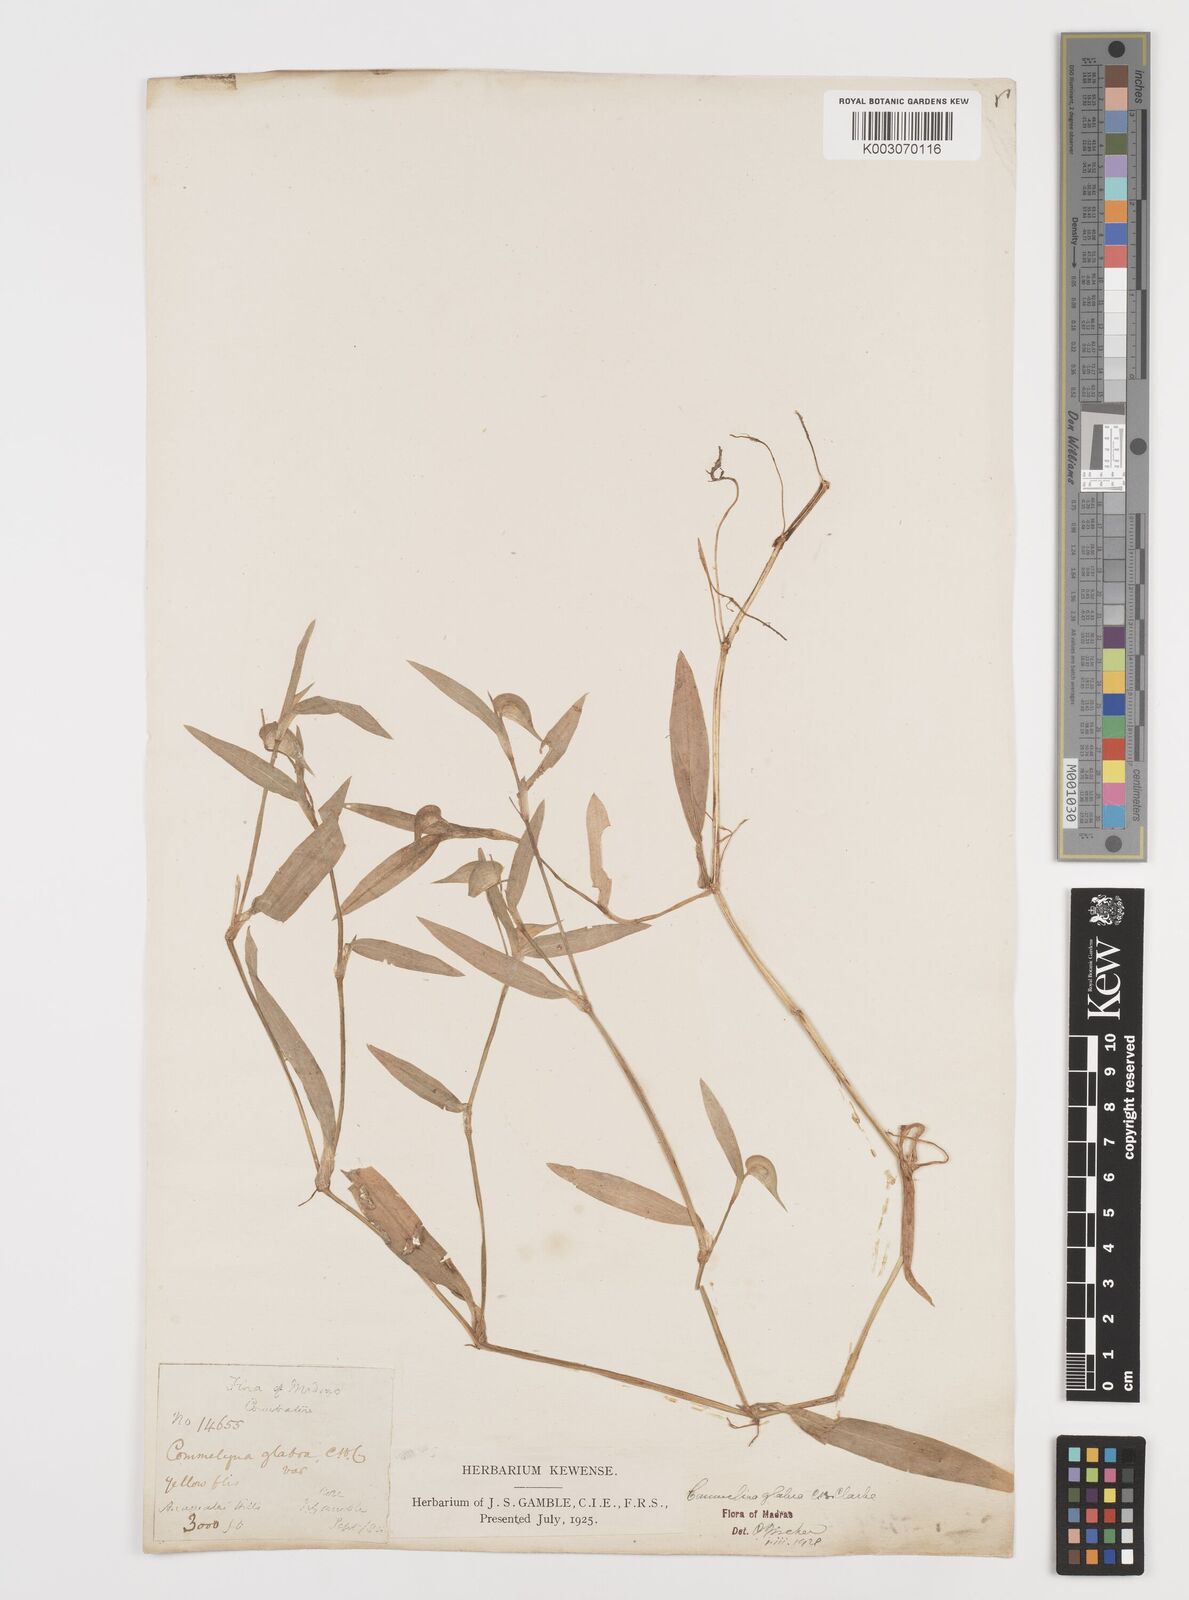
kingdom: Plantae
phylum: Tracheophyta
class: Liliopsida
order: Commelinales
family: Commelinaceae
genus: Commelina
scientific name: Commelina wightii
